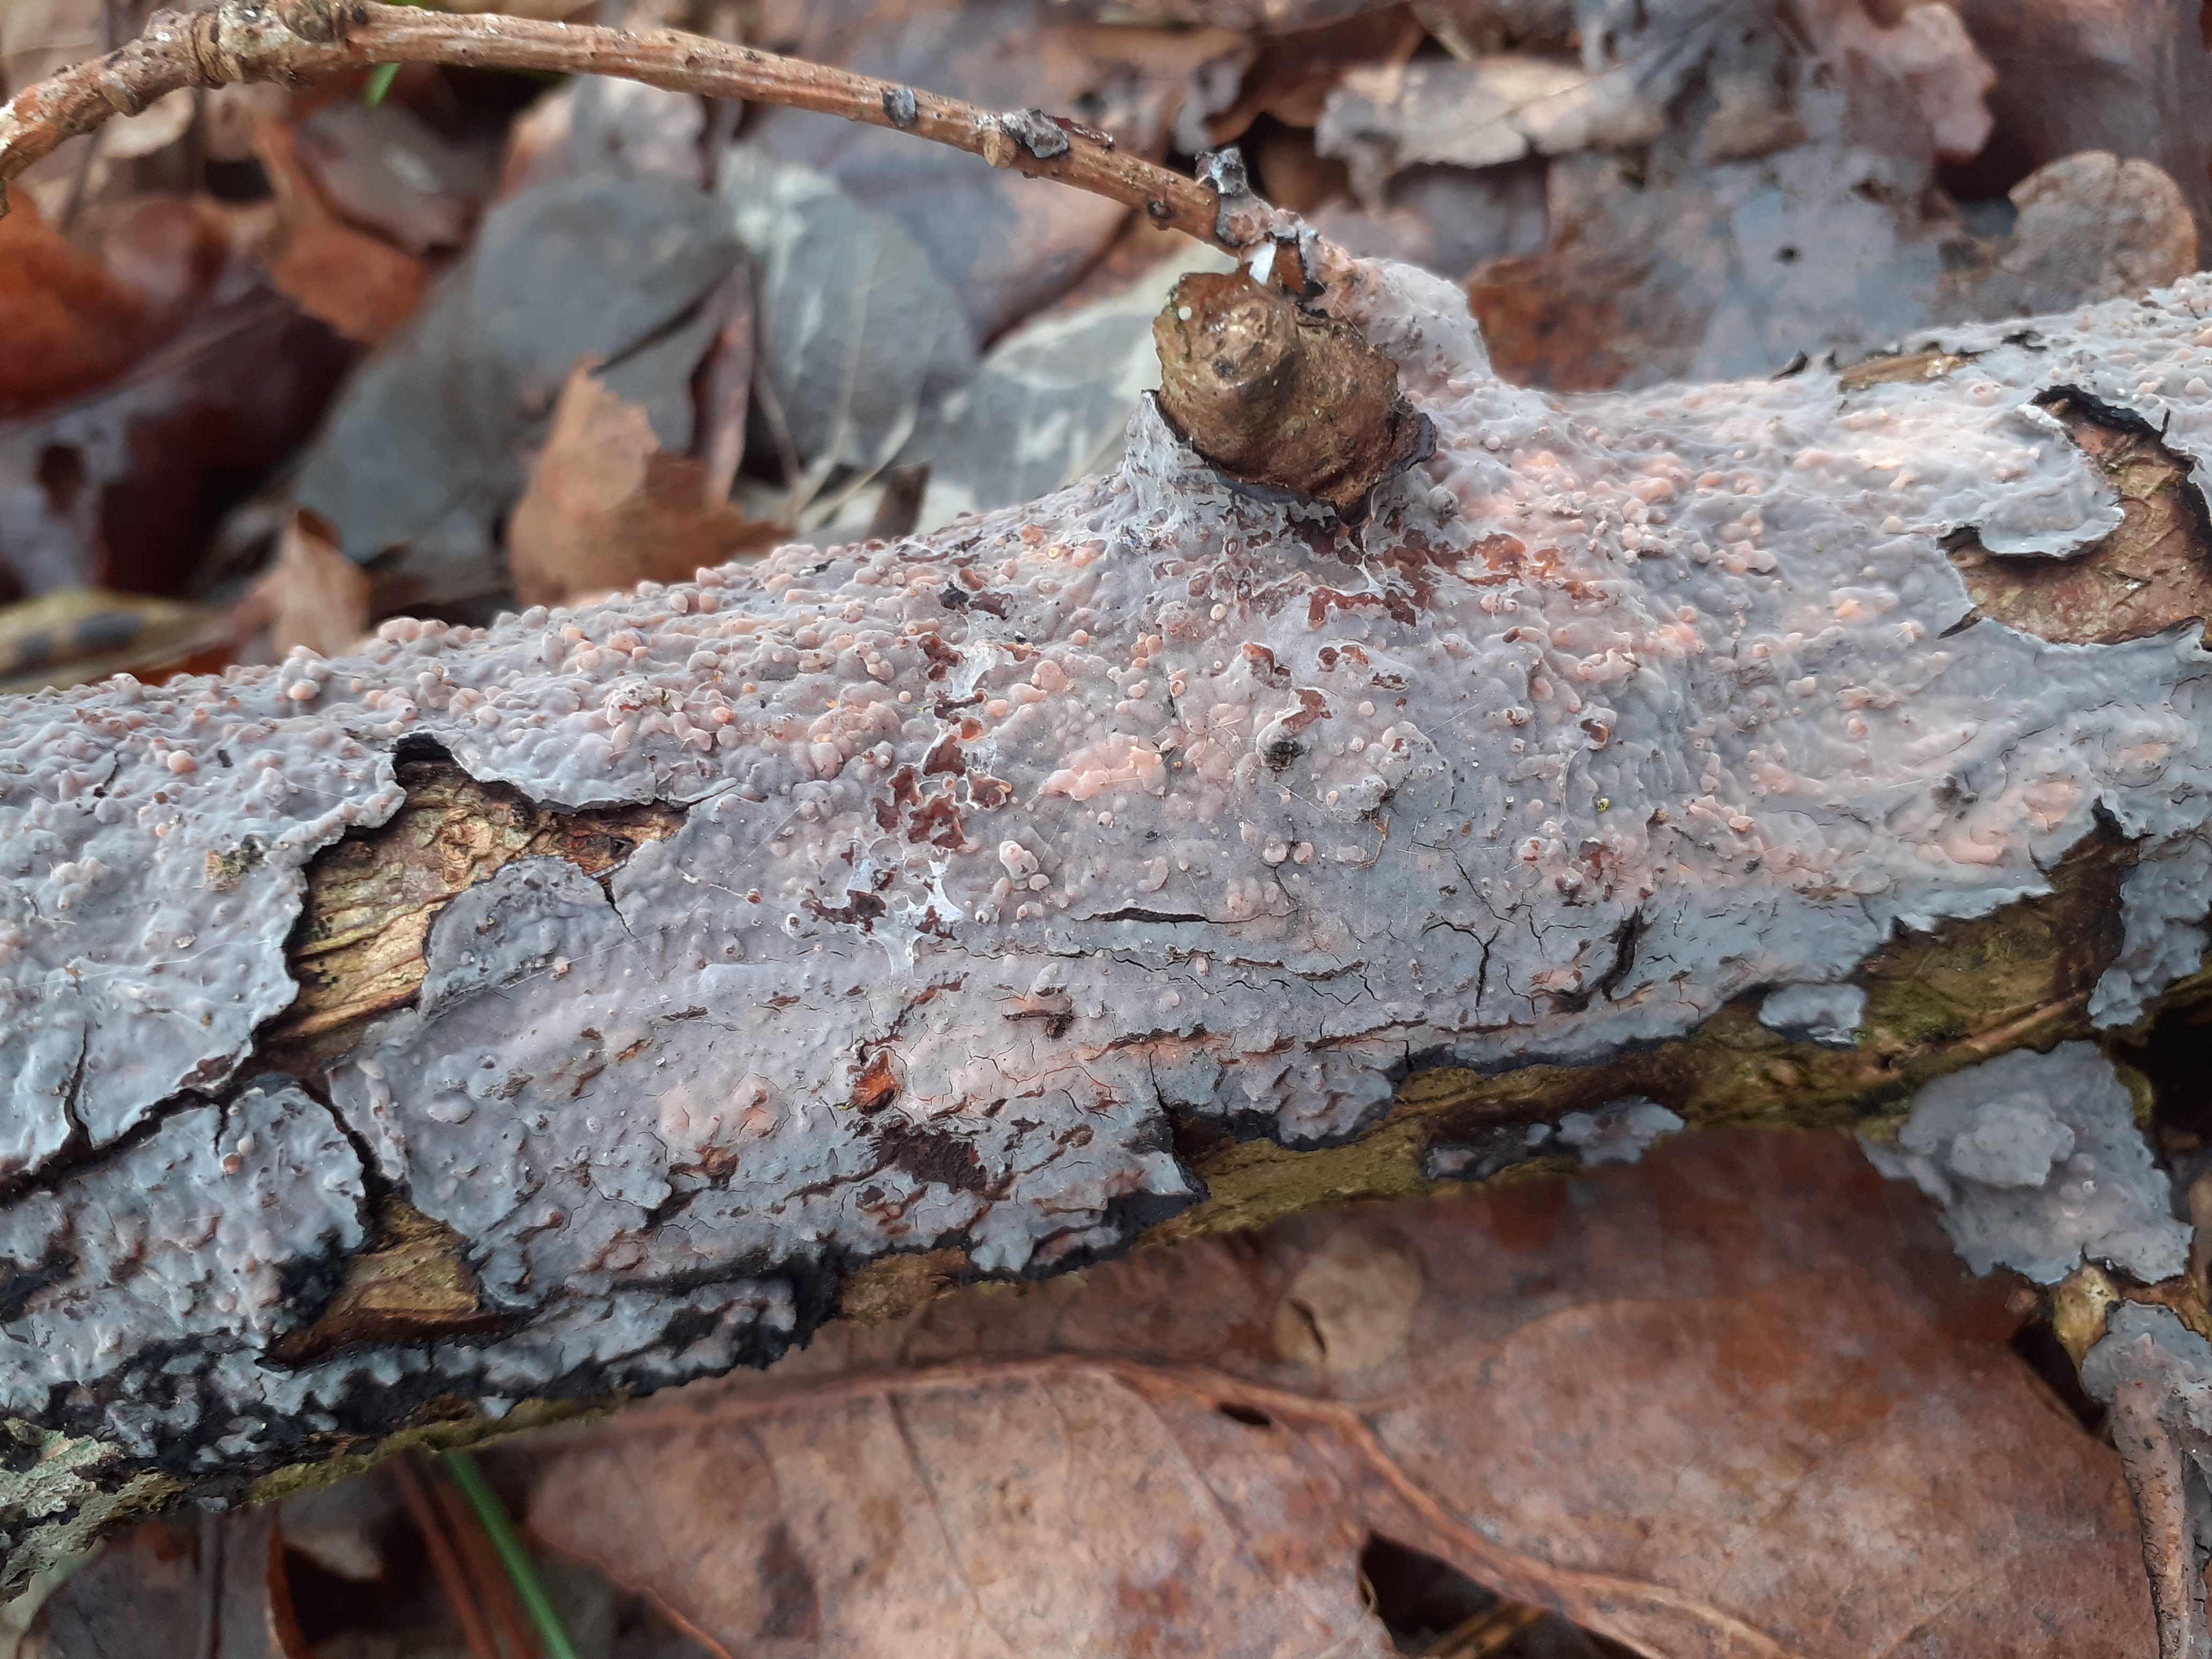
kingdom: Fungi
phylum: Basidiomycota
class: Agaricomycetes
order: Russulales
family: Peniophoraceae
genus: Peniophora
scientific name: Peniophora quercina
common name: ege-voksskind
